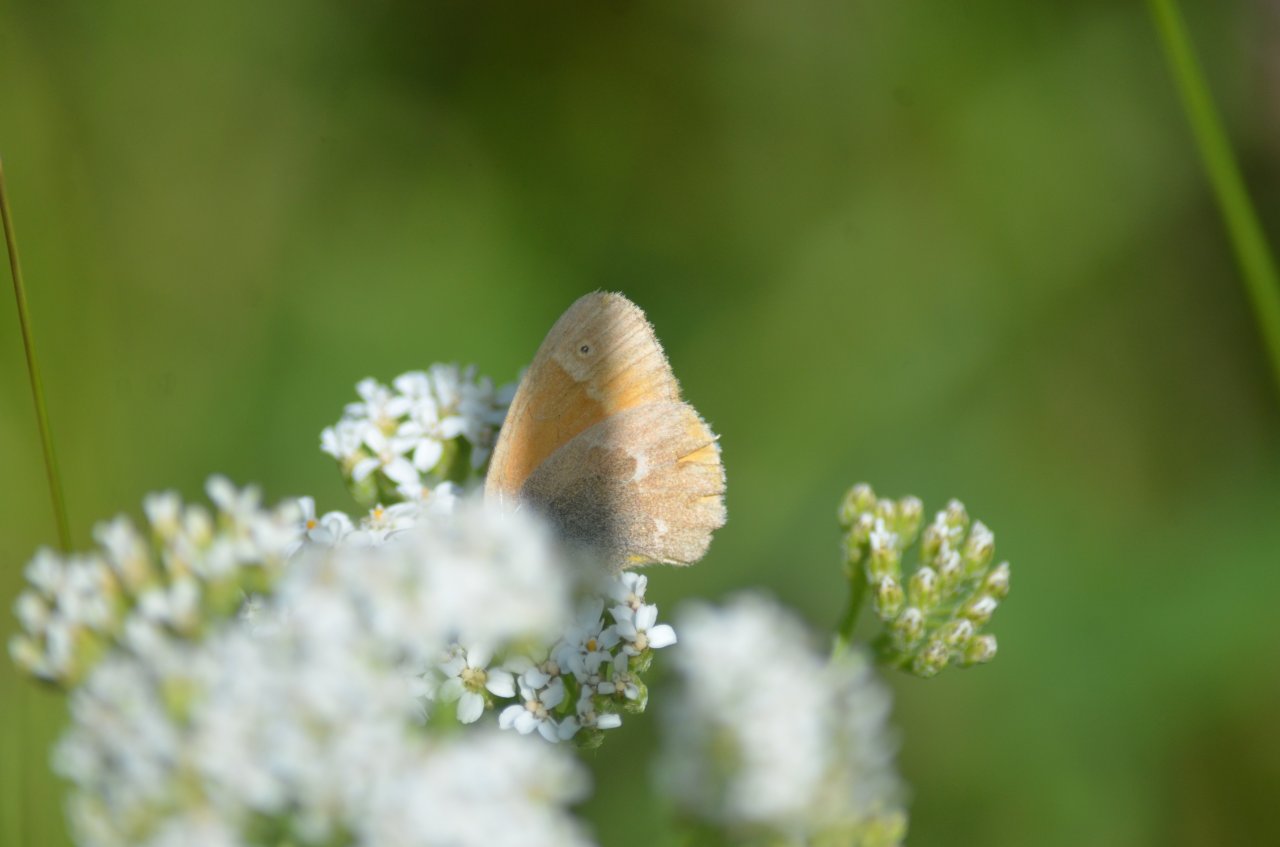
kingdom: Animalia
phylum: Arthropoda
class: Insecta
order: Lepidoptera
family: Nymphalidae
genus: Coenonympha
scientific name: Coenonympha tullia
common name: Large Heath
